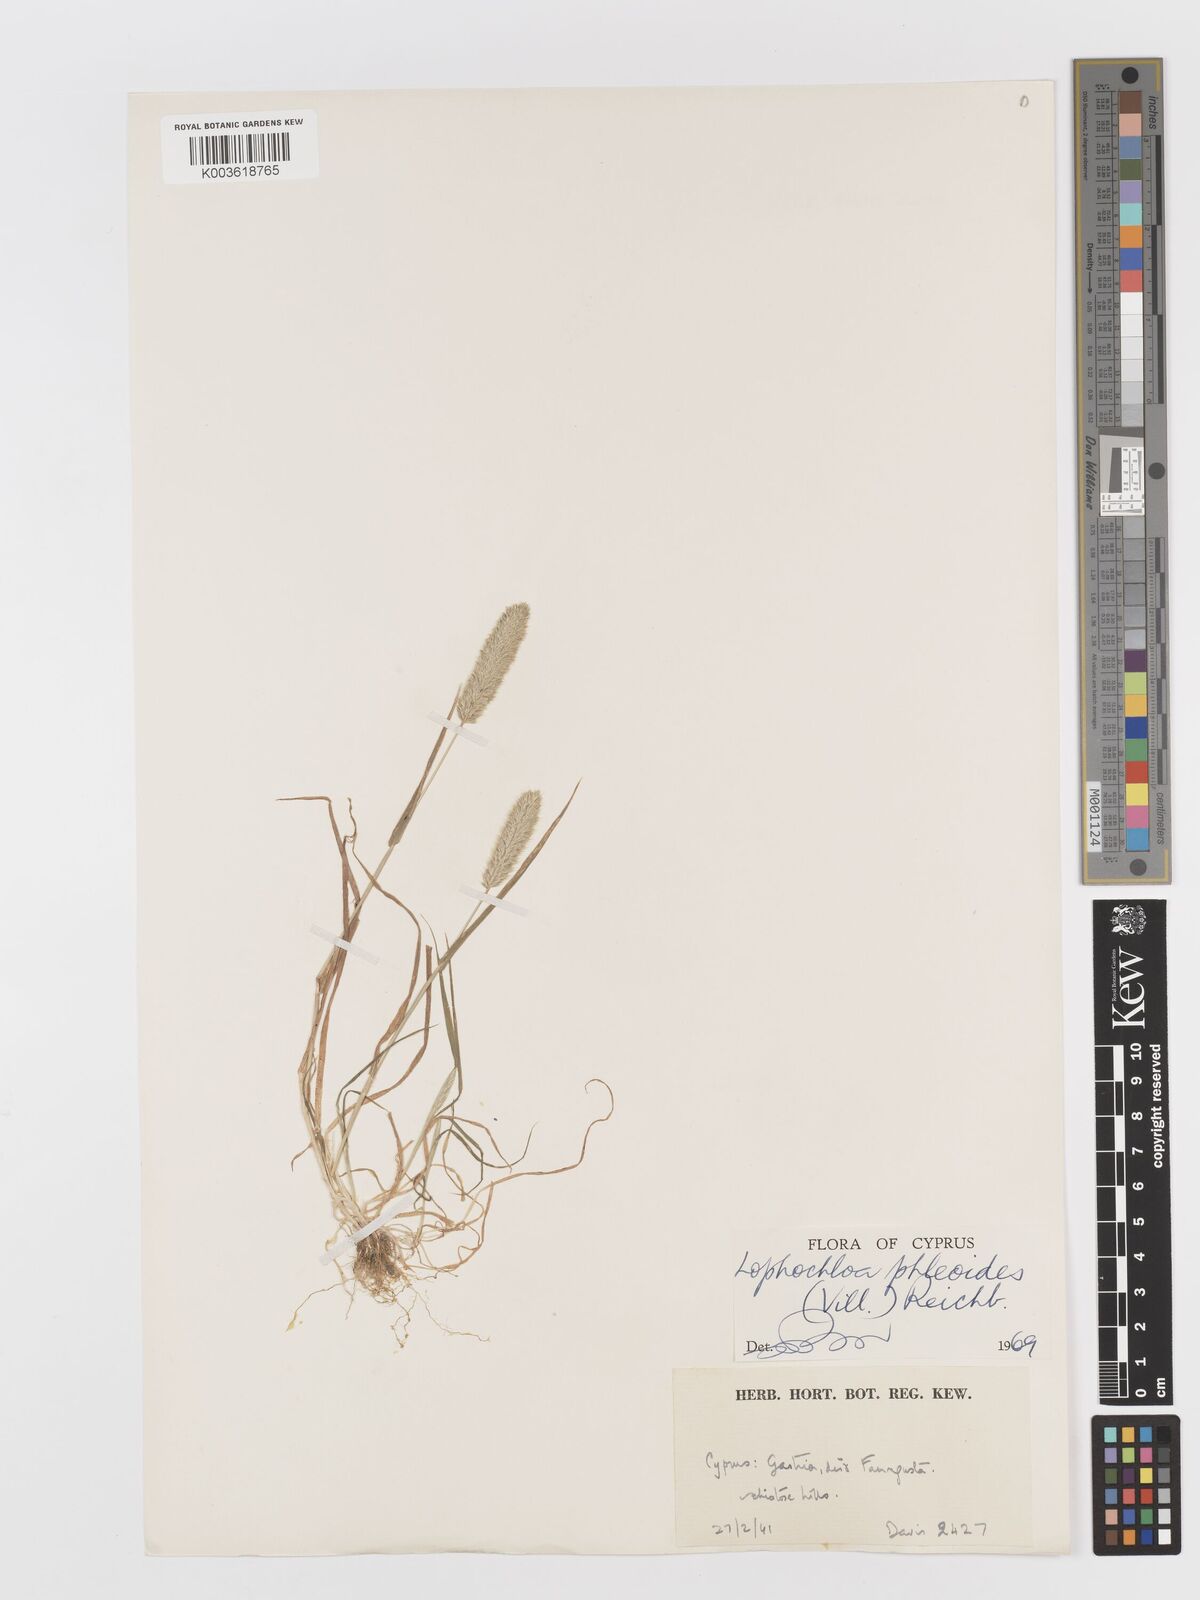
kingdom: Plantae
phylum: Tracheophyta
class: Liliopsida
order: Poales
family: Poaceae
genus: Rostraria
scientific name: Rostraria cristata
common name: Mediterranean hair-grass
